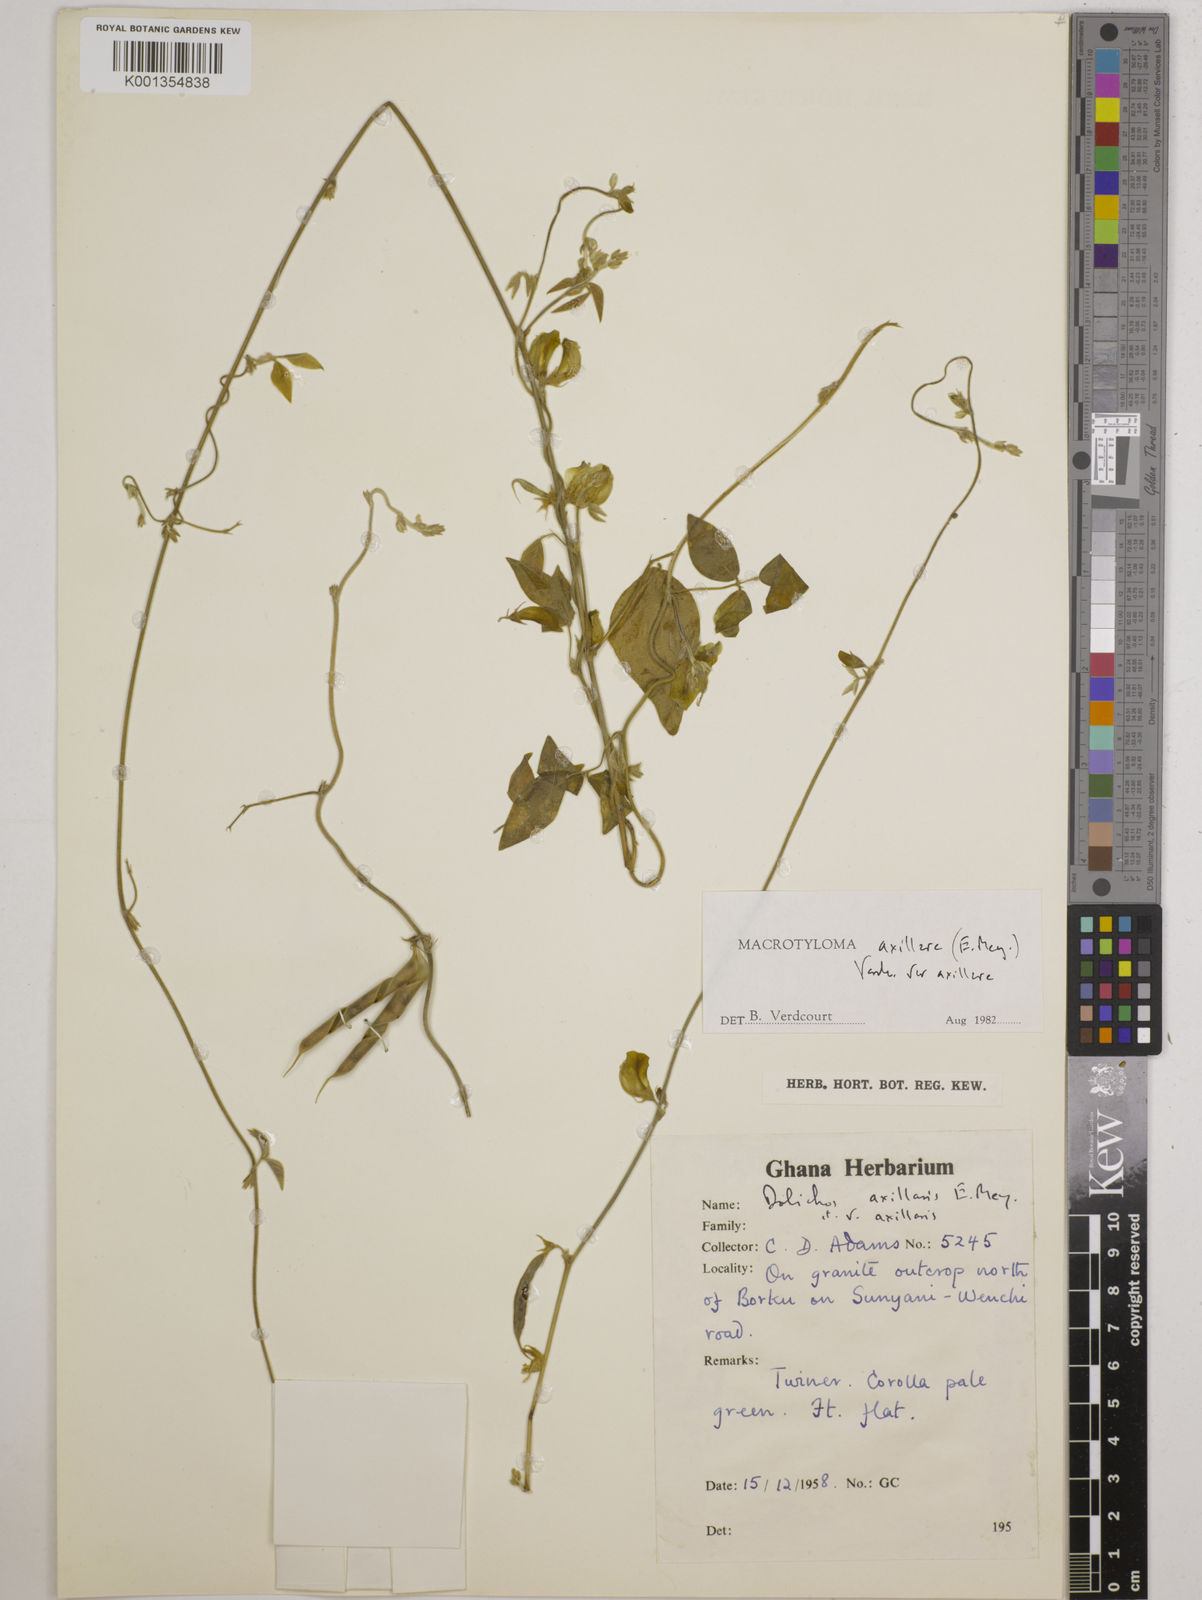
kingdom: Plantae
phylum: Tracheophyta
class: Magnoliopsida
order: Fabales
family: Fabaceae
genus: Macrotyloma
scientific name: Macrotyloma axillare
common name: Perennial horsegram
